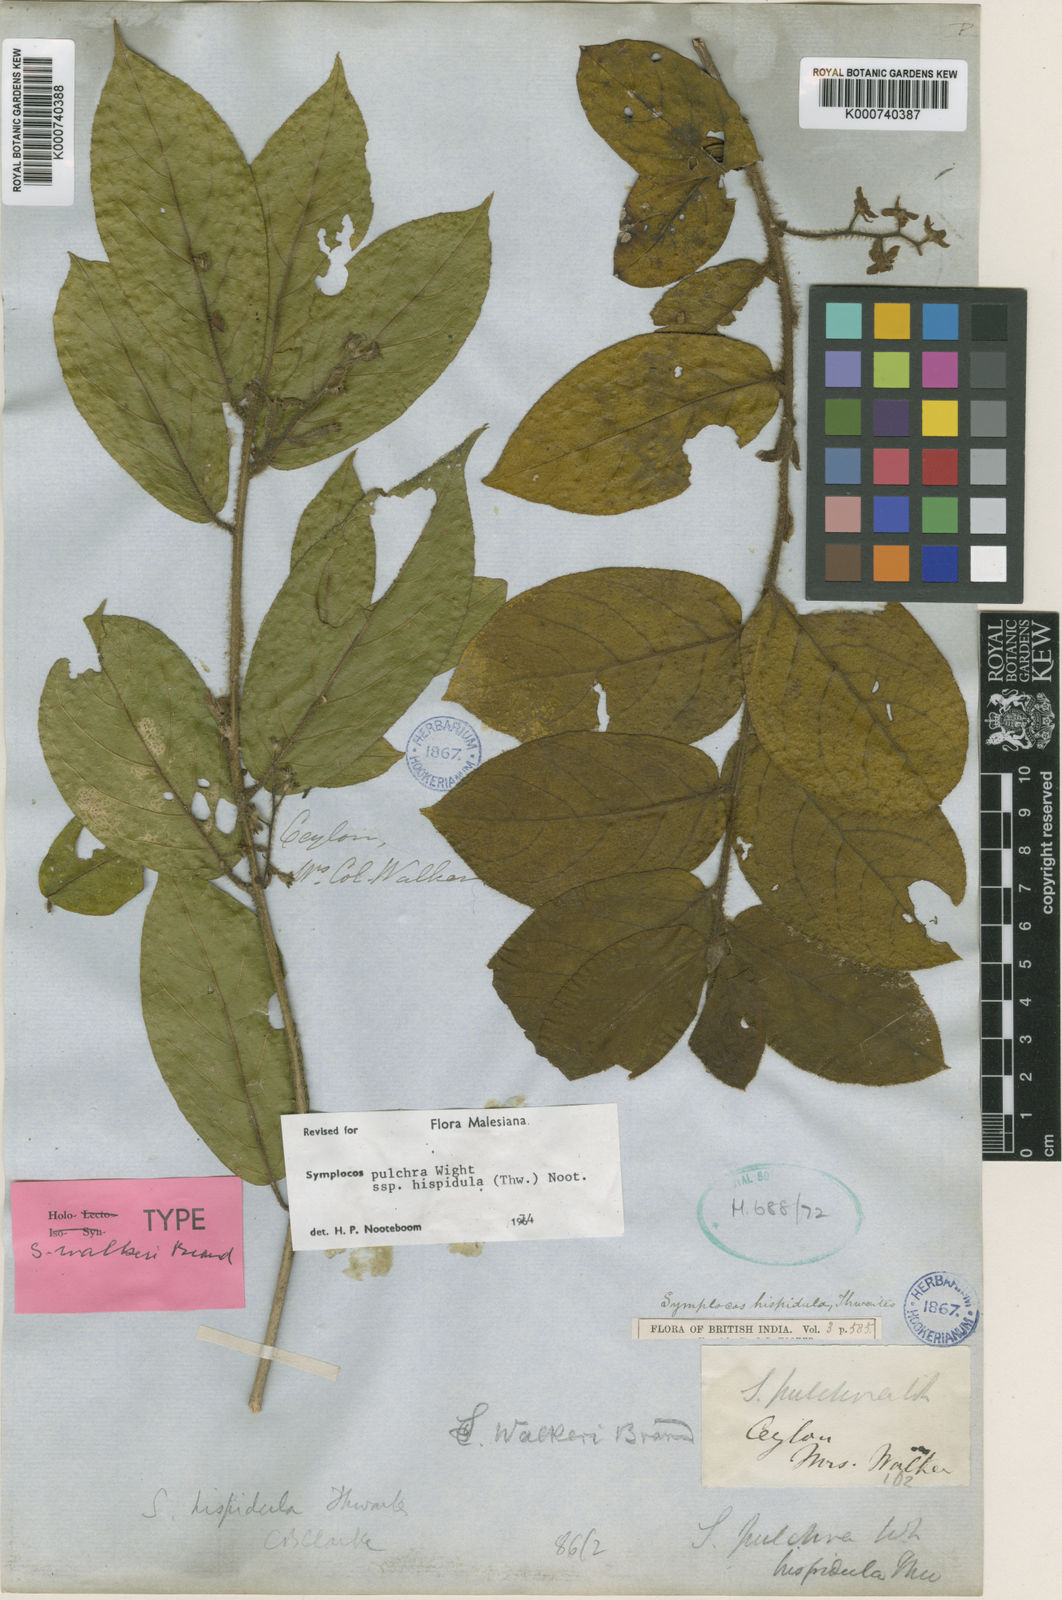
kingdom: Plantae
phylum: Tracheophyta
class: Magnoliopsida
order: Ericales
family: Symplocaceae
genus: Symplocos
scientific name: Symplocos pulchra
